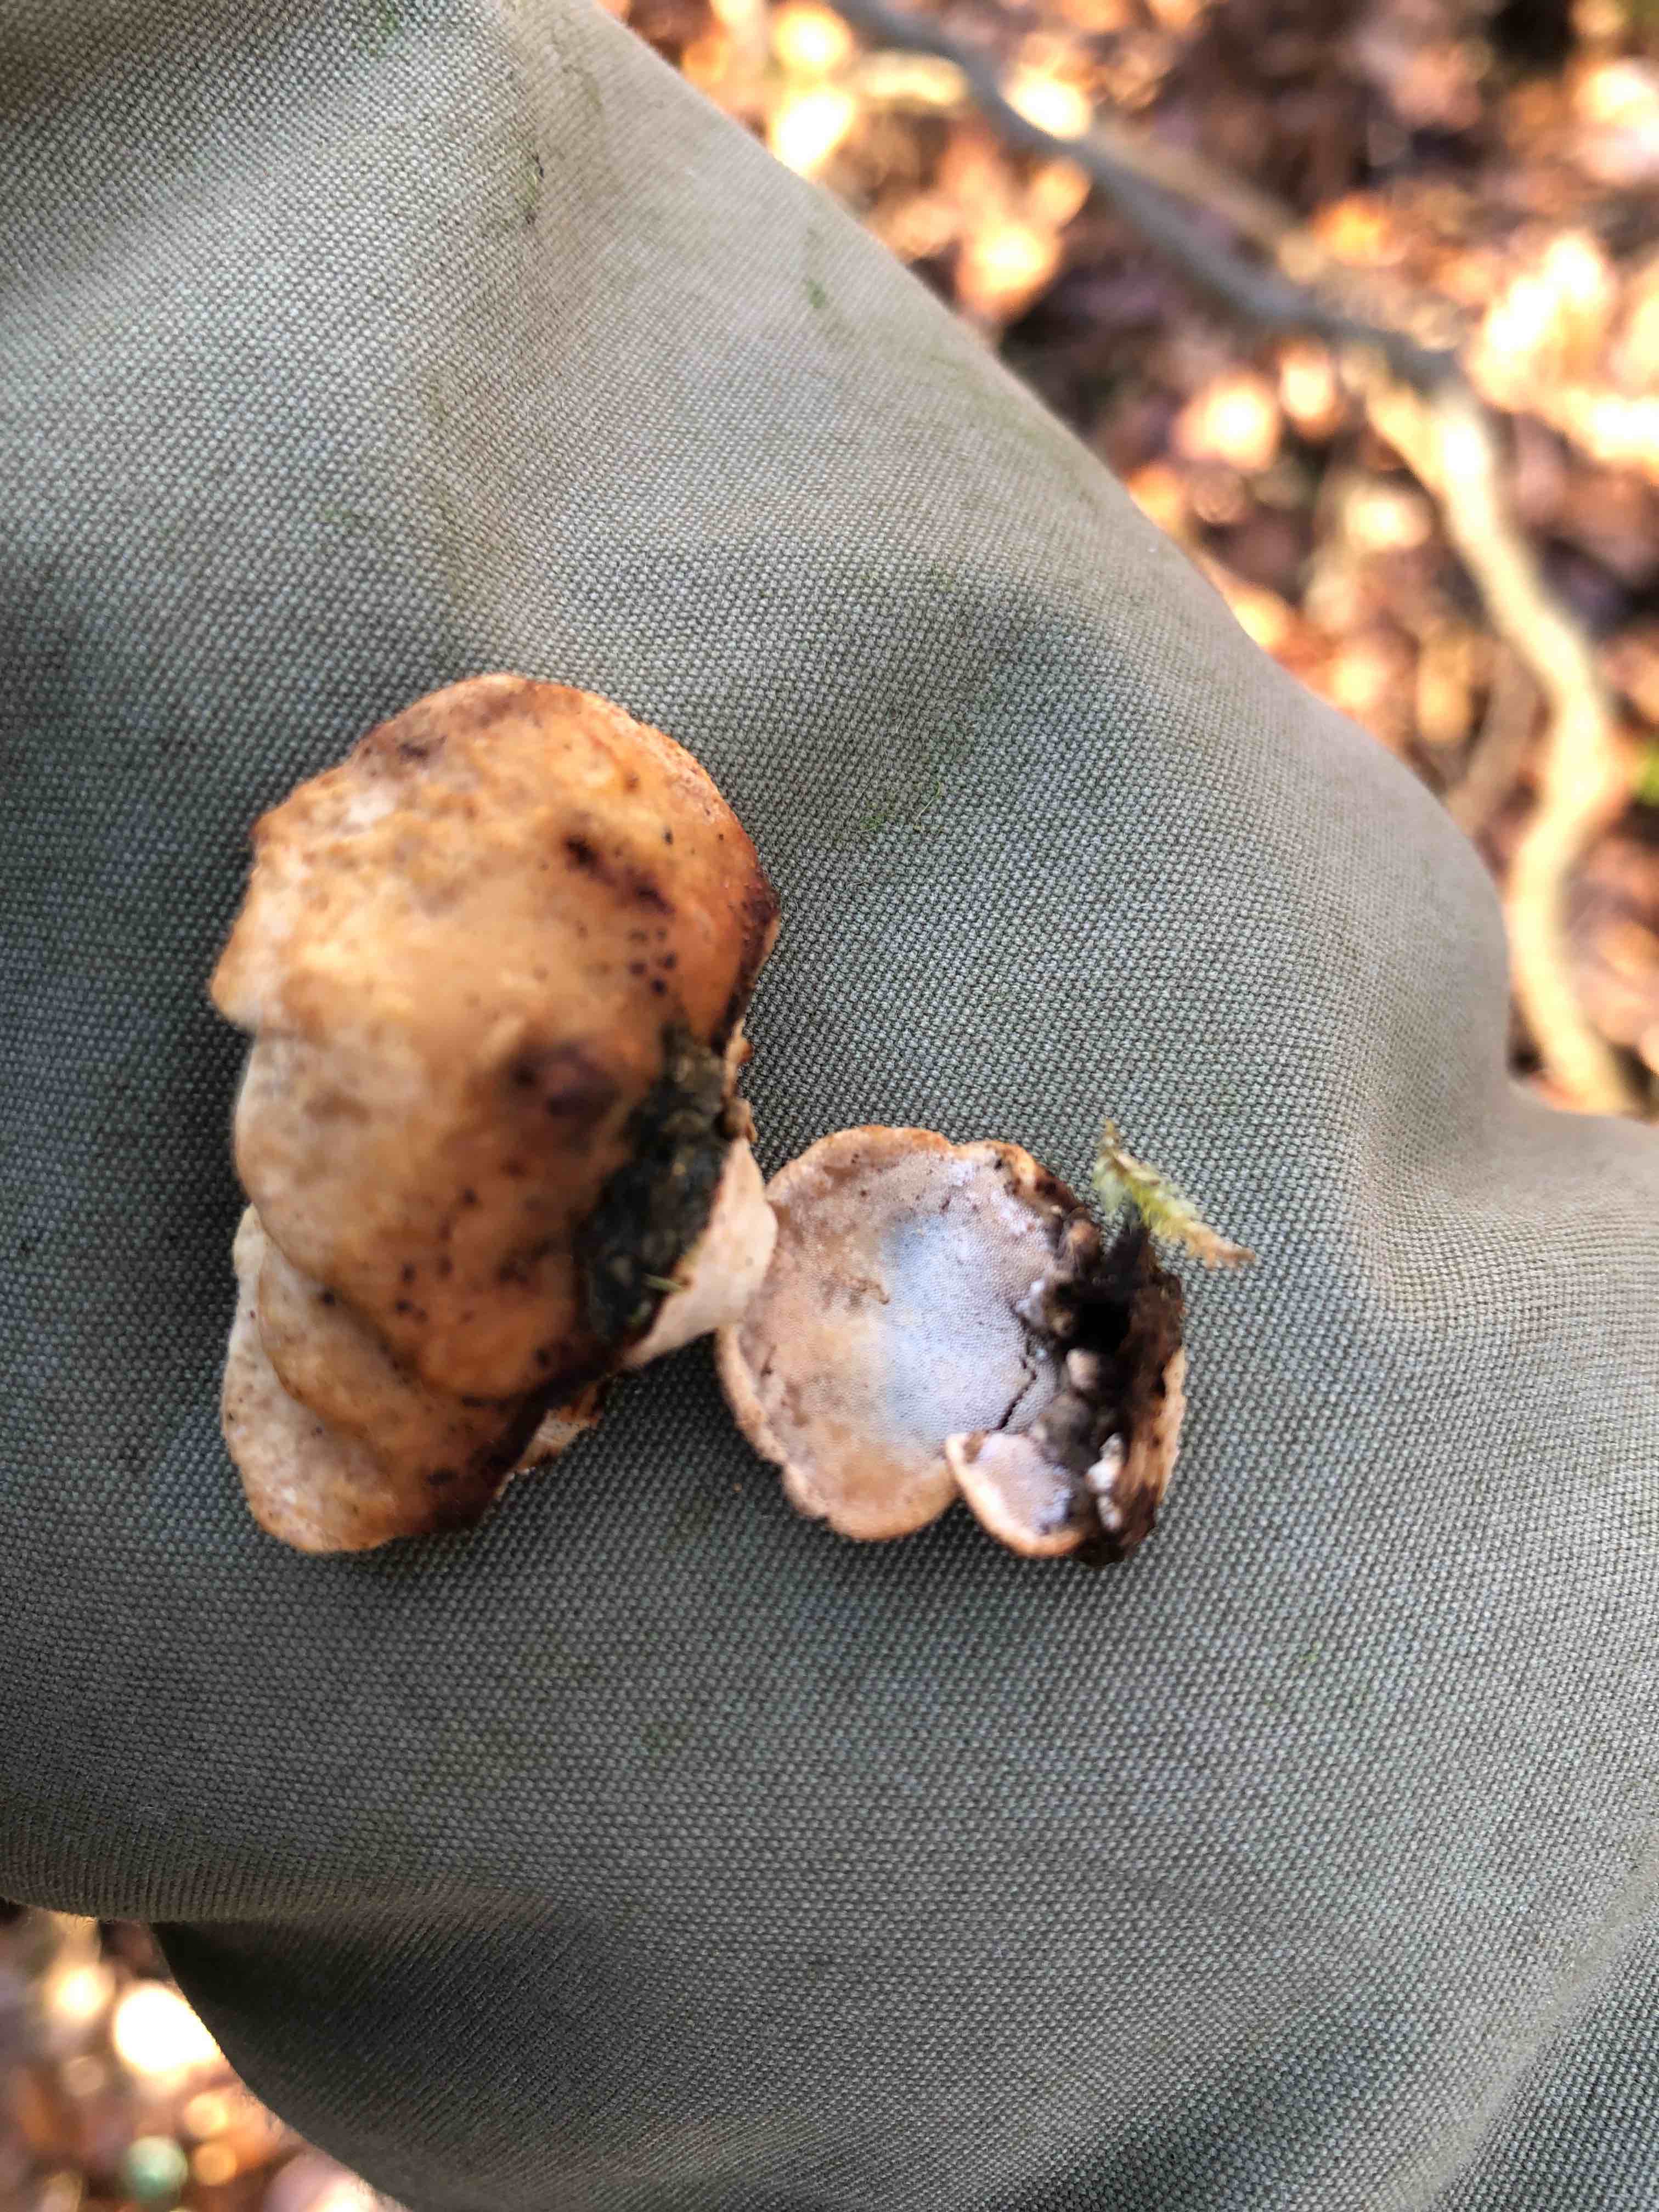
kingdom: Fungi
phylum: Basidiomycota
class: Agaricomycetes
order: Polyporales
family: Incrustoporiaceae
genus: Skeletocutis
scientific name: Skeletocutis nemoralis
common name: stor krystalporesvamp
